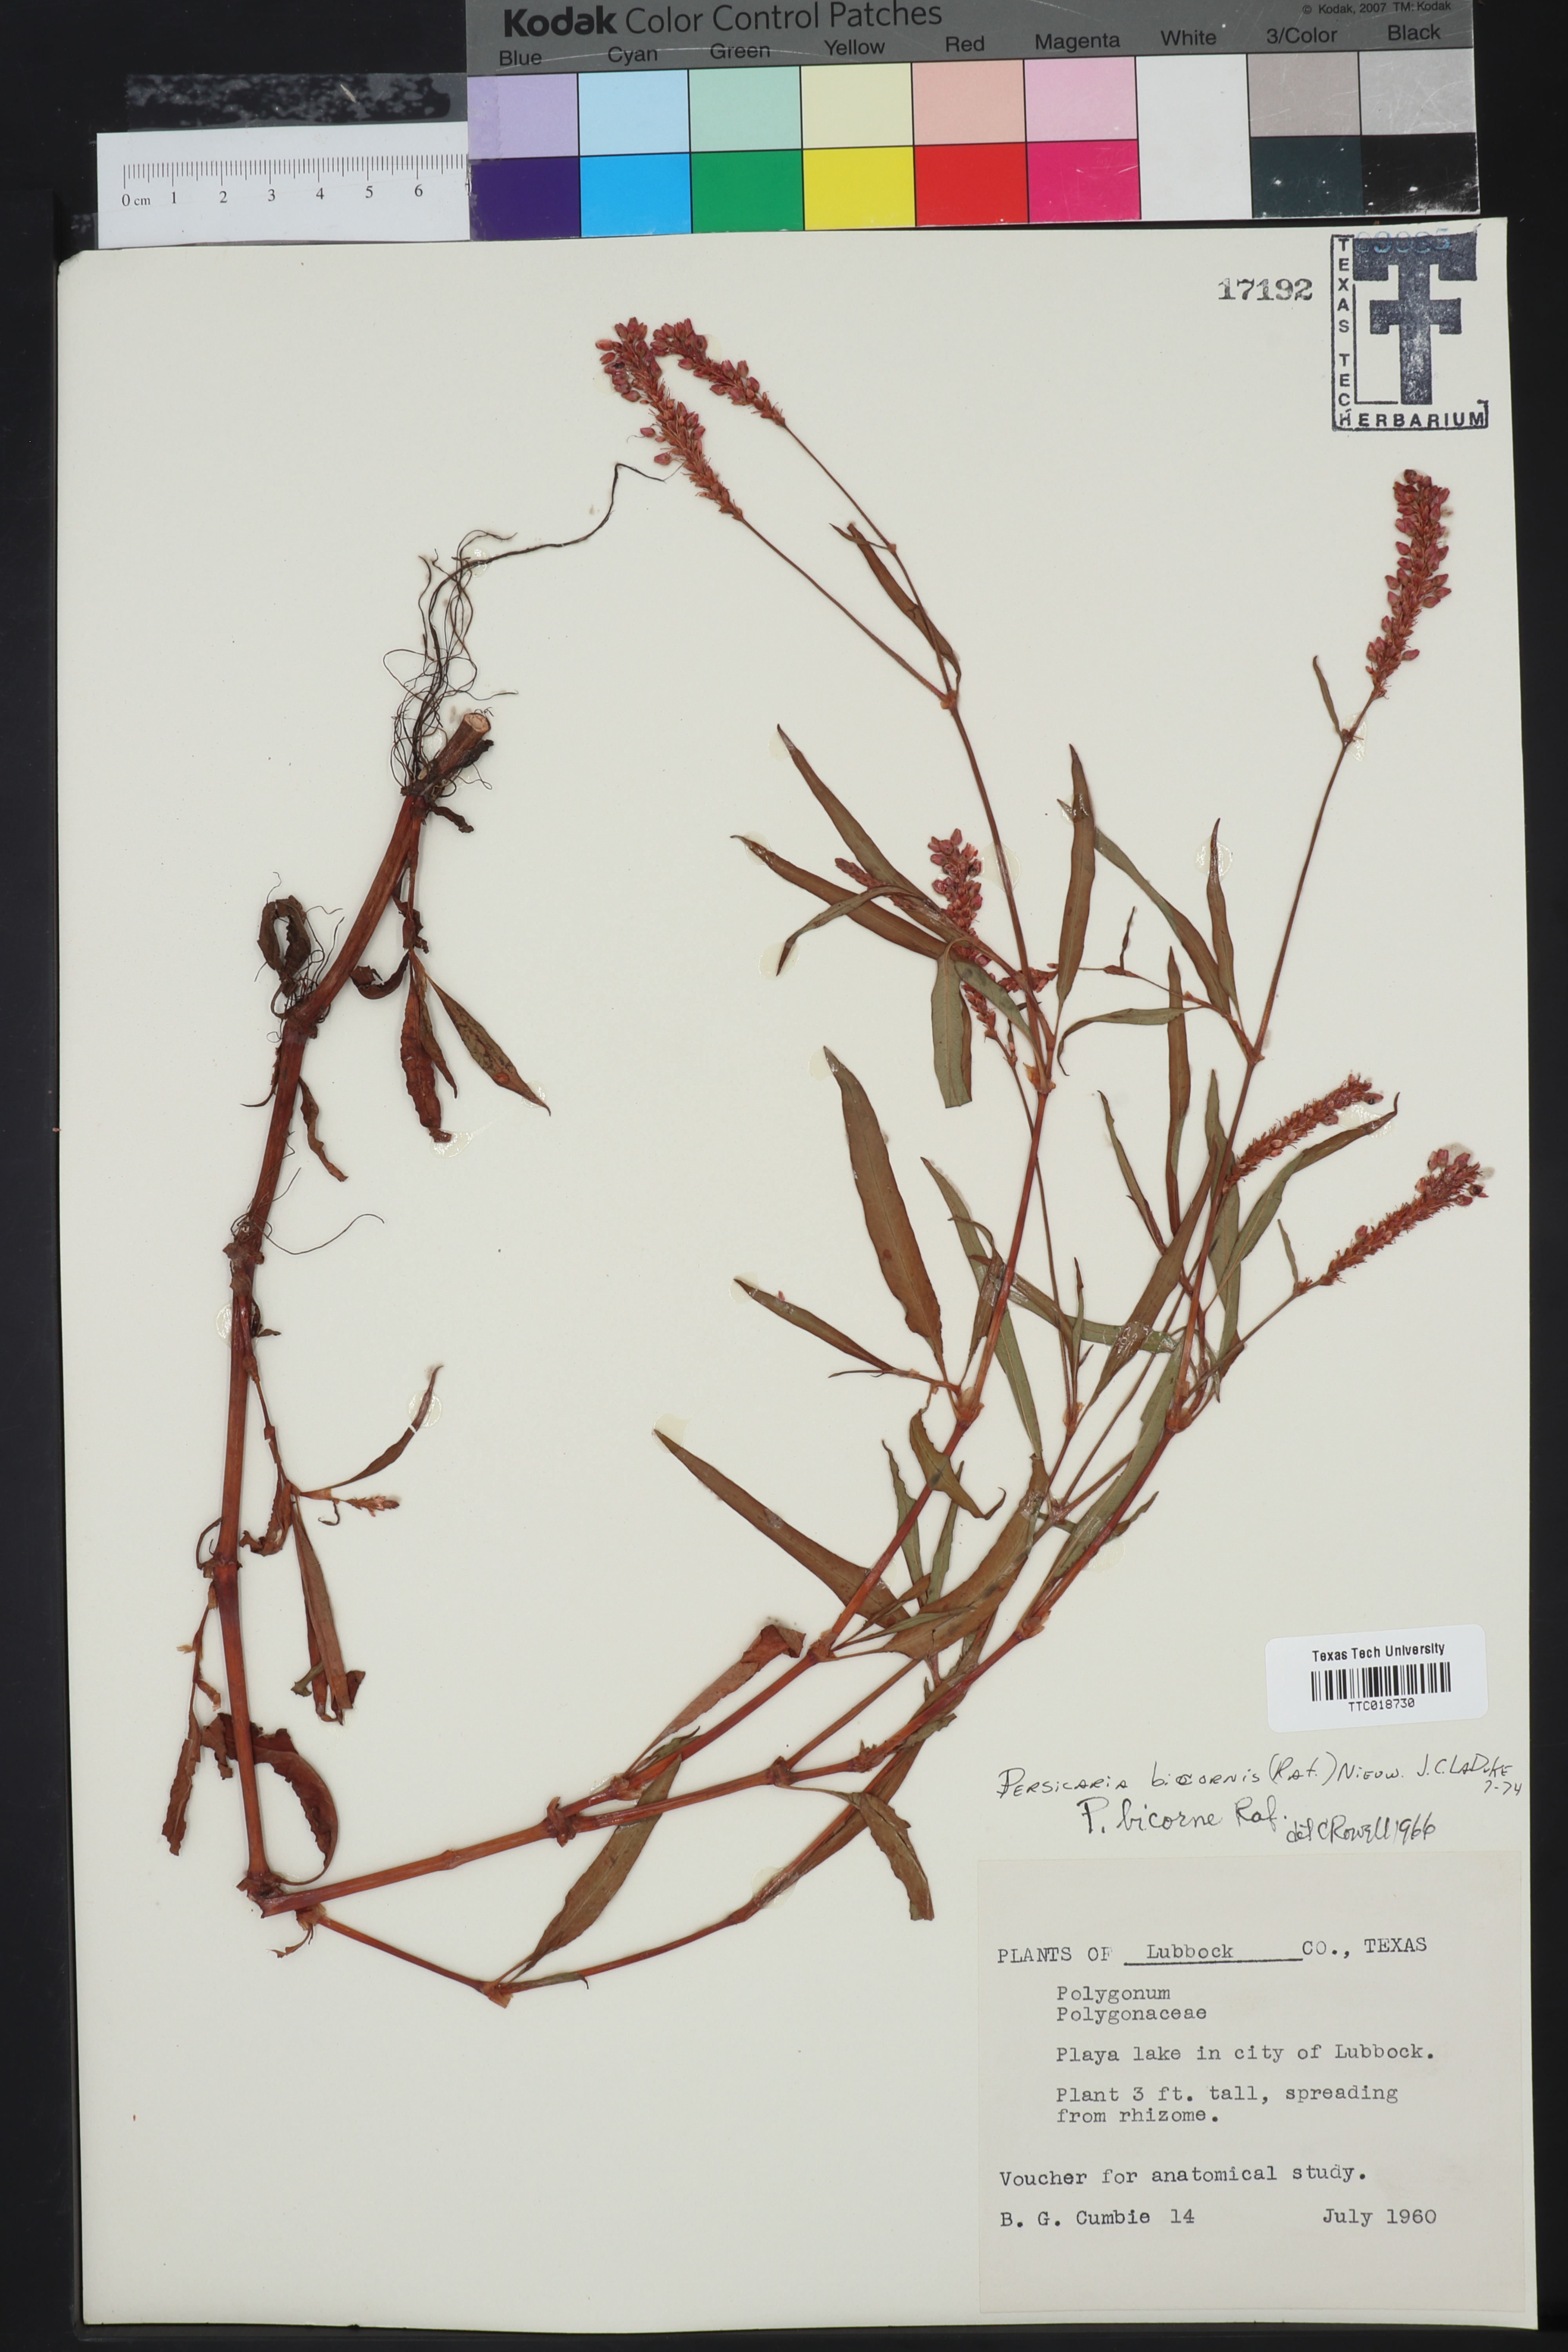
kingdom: Plantae
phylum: Tracheophyta
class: Magnoliopsida
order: Caryophyllales
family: Polygonaceae
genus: Persicaria
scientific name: Persicaria bicornis
